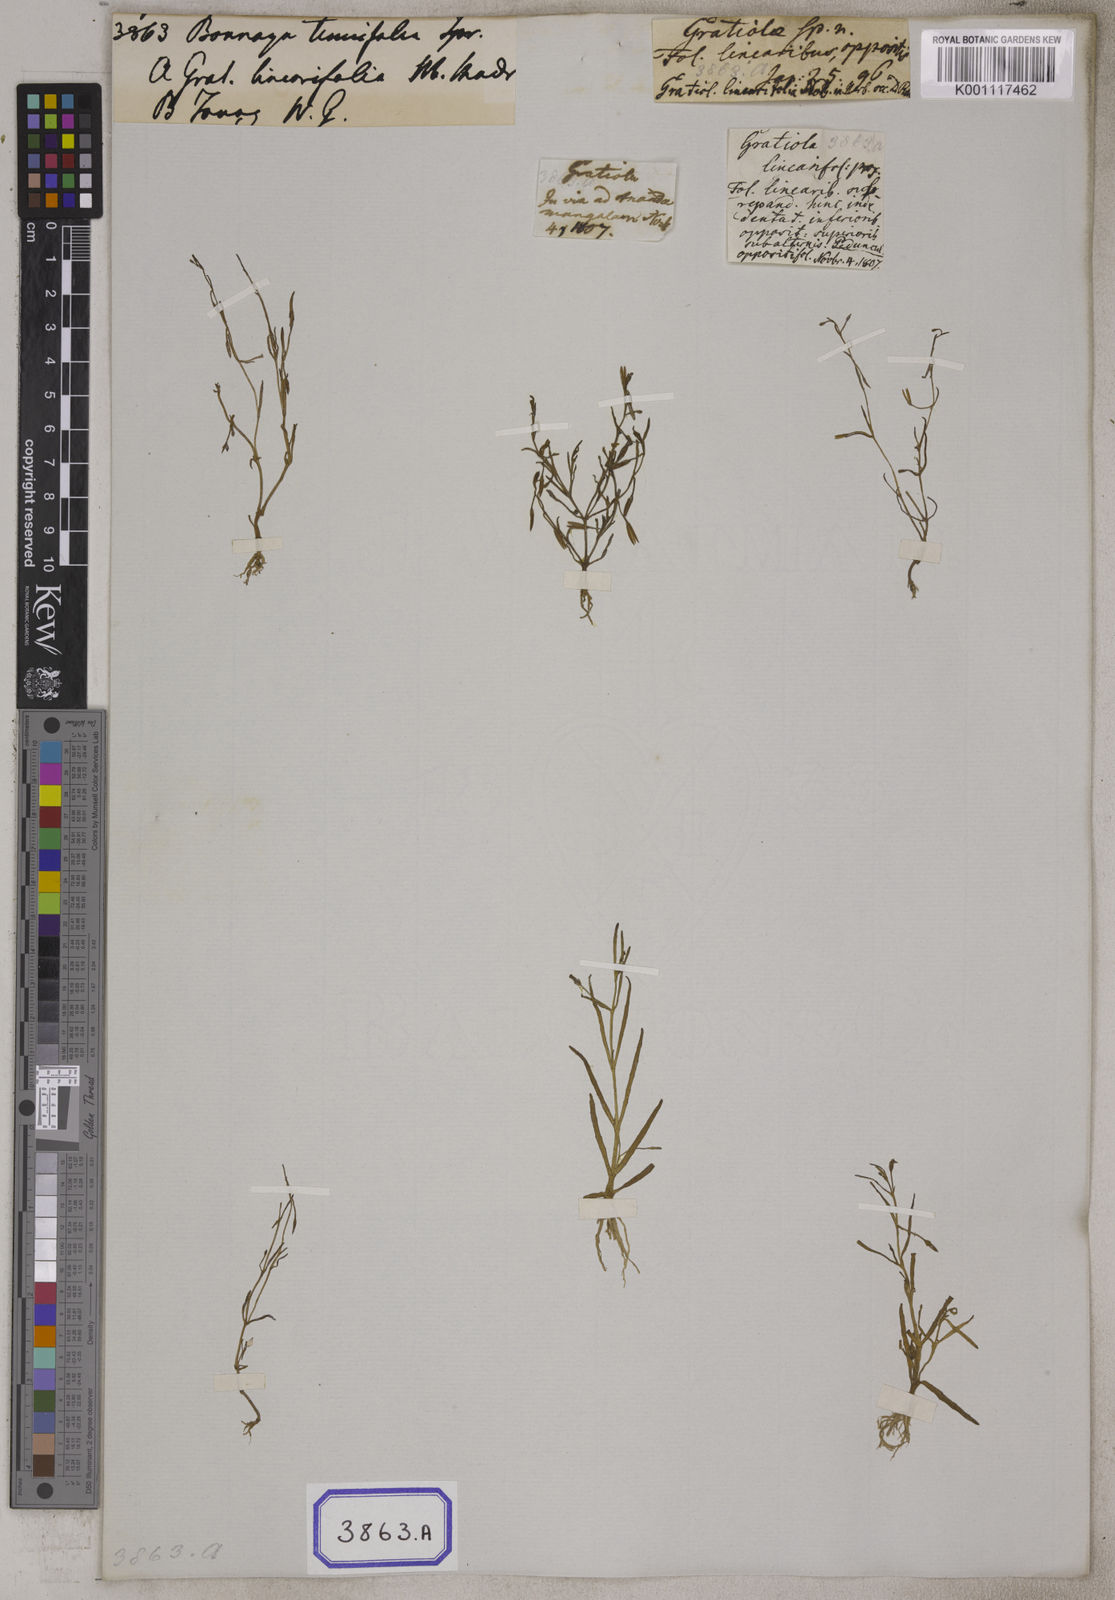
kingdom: Plantae
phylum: Tracheophyta
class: Magnoliopsida
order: Lamiales
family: Linderniaceae
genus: Bonnaya
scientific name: Bonnaya tenuifolia
